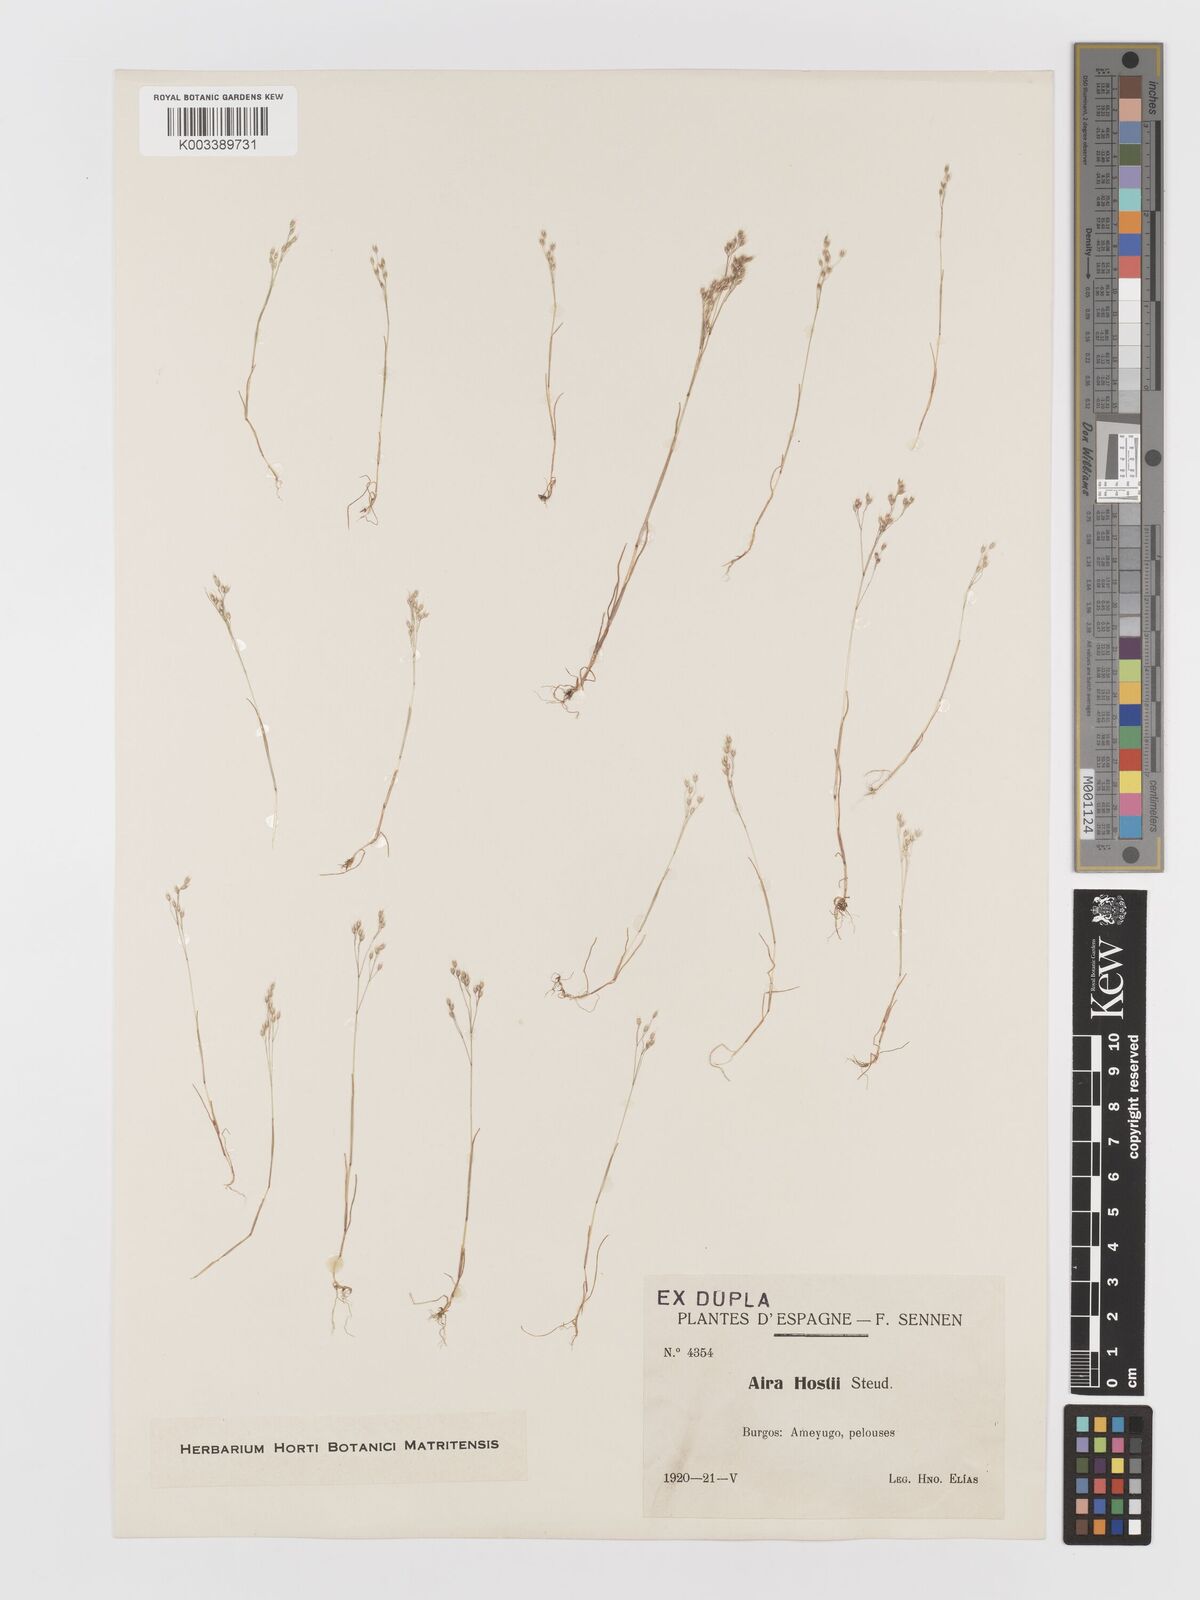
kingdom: Plantae
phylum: Tracheophyta
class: Liliopsida
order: Poales
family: Poaceae
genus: Aira
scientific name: Aira caryophyllea
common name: Silver hairgrass
